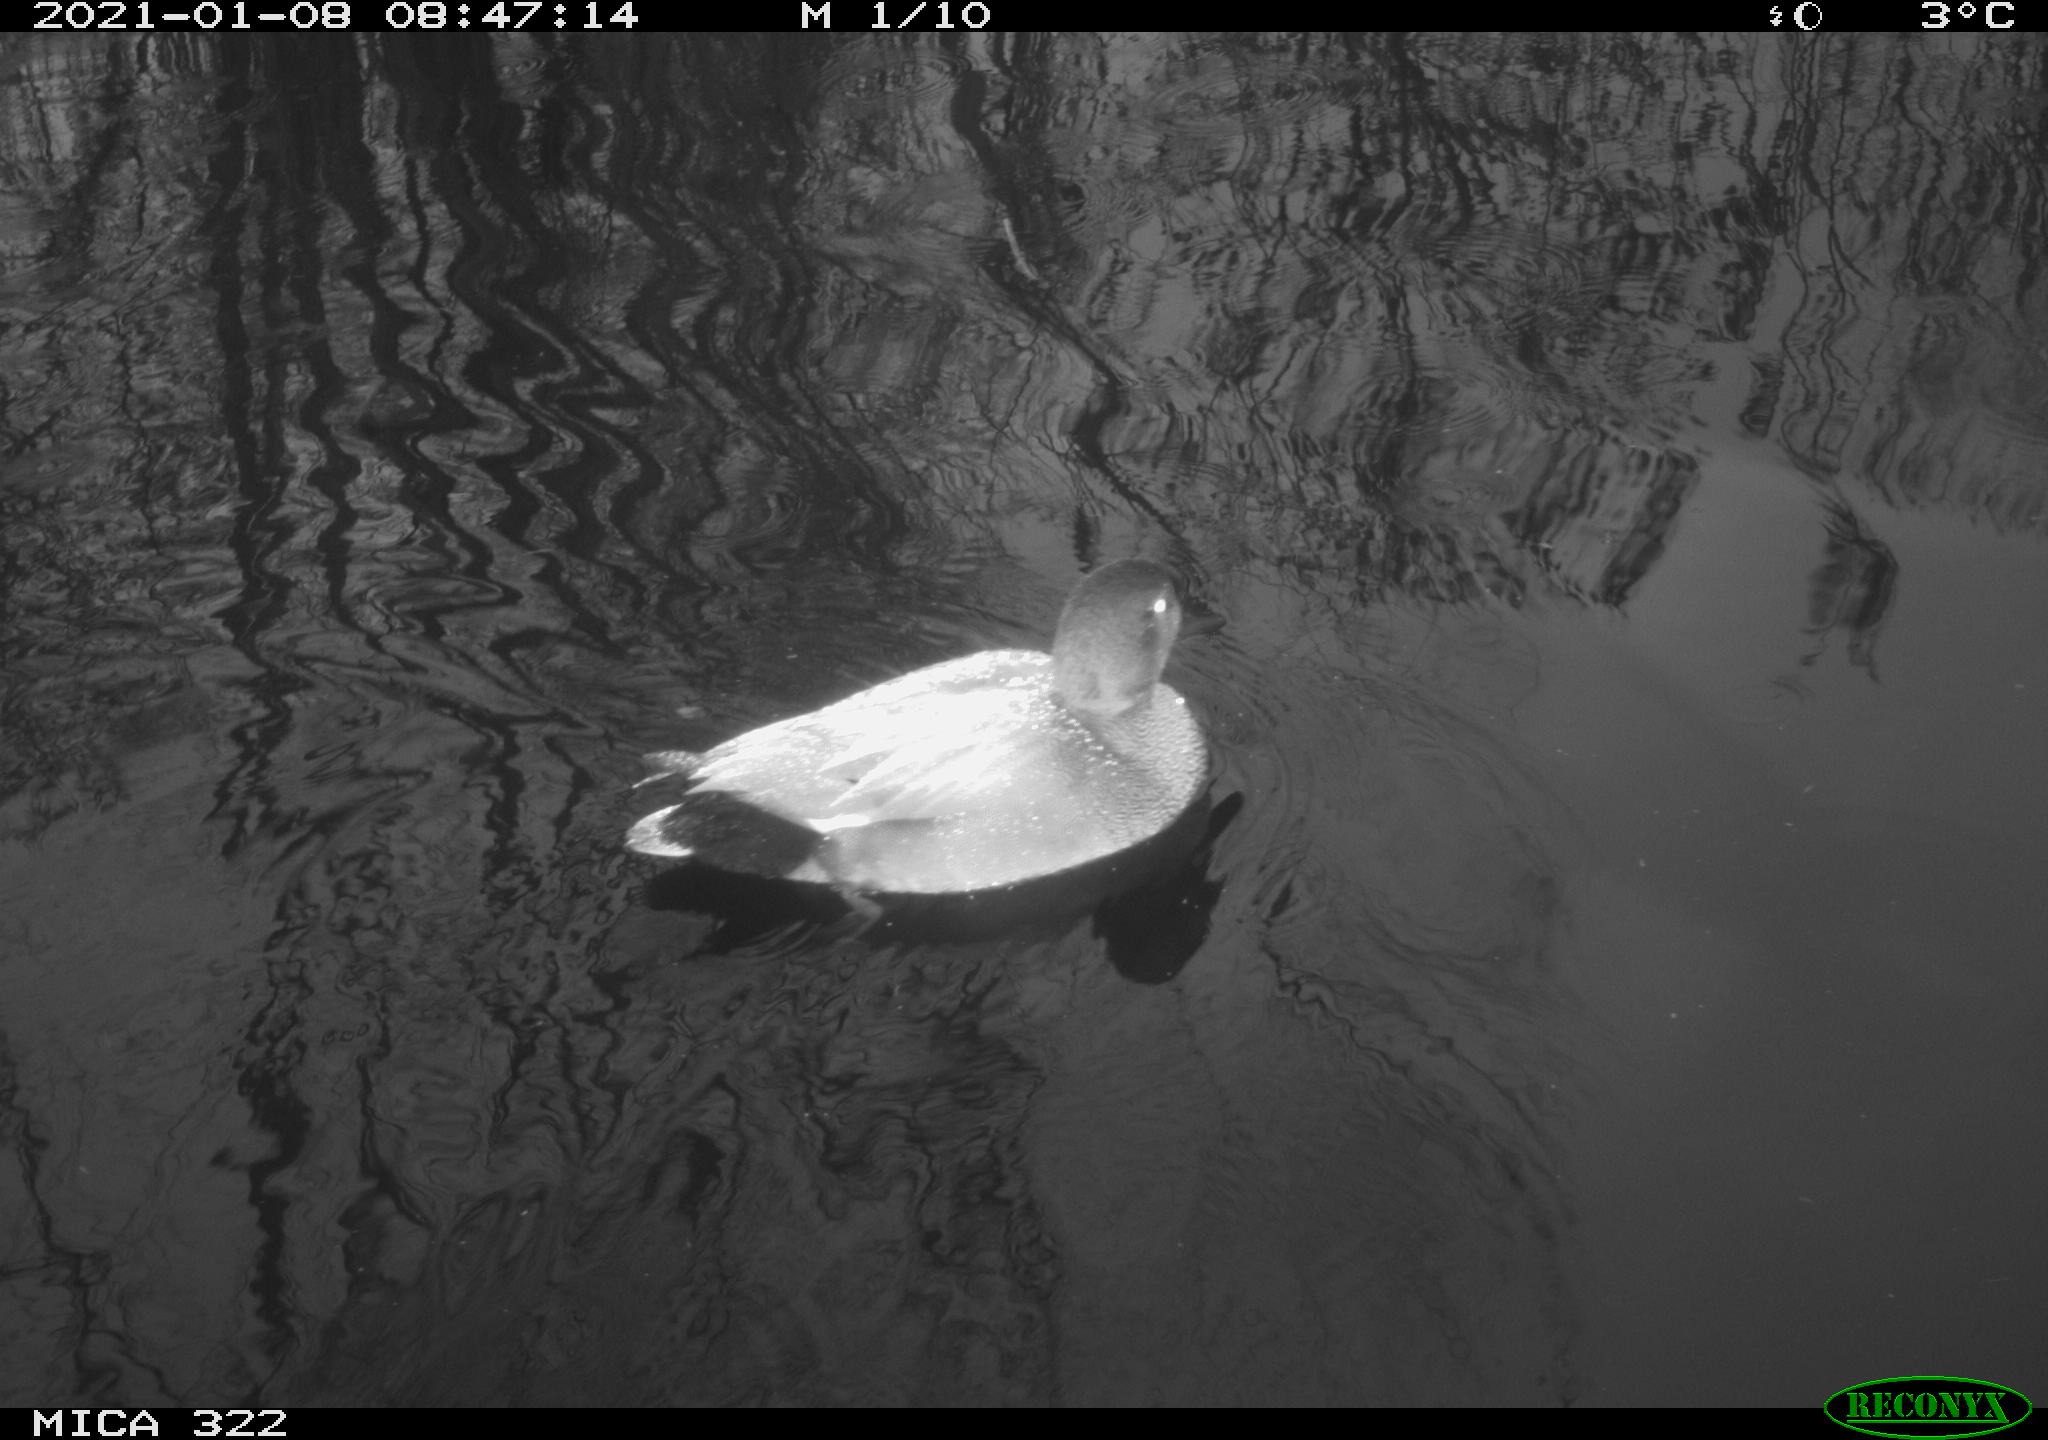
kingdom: Animalia
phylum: Chordata
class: Aves
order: Anseriformes
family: Anatidae
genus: Mareca
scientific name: Mareca strepera
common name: Gadwall
